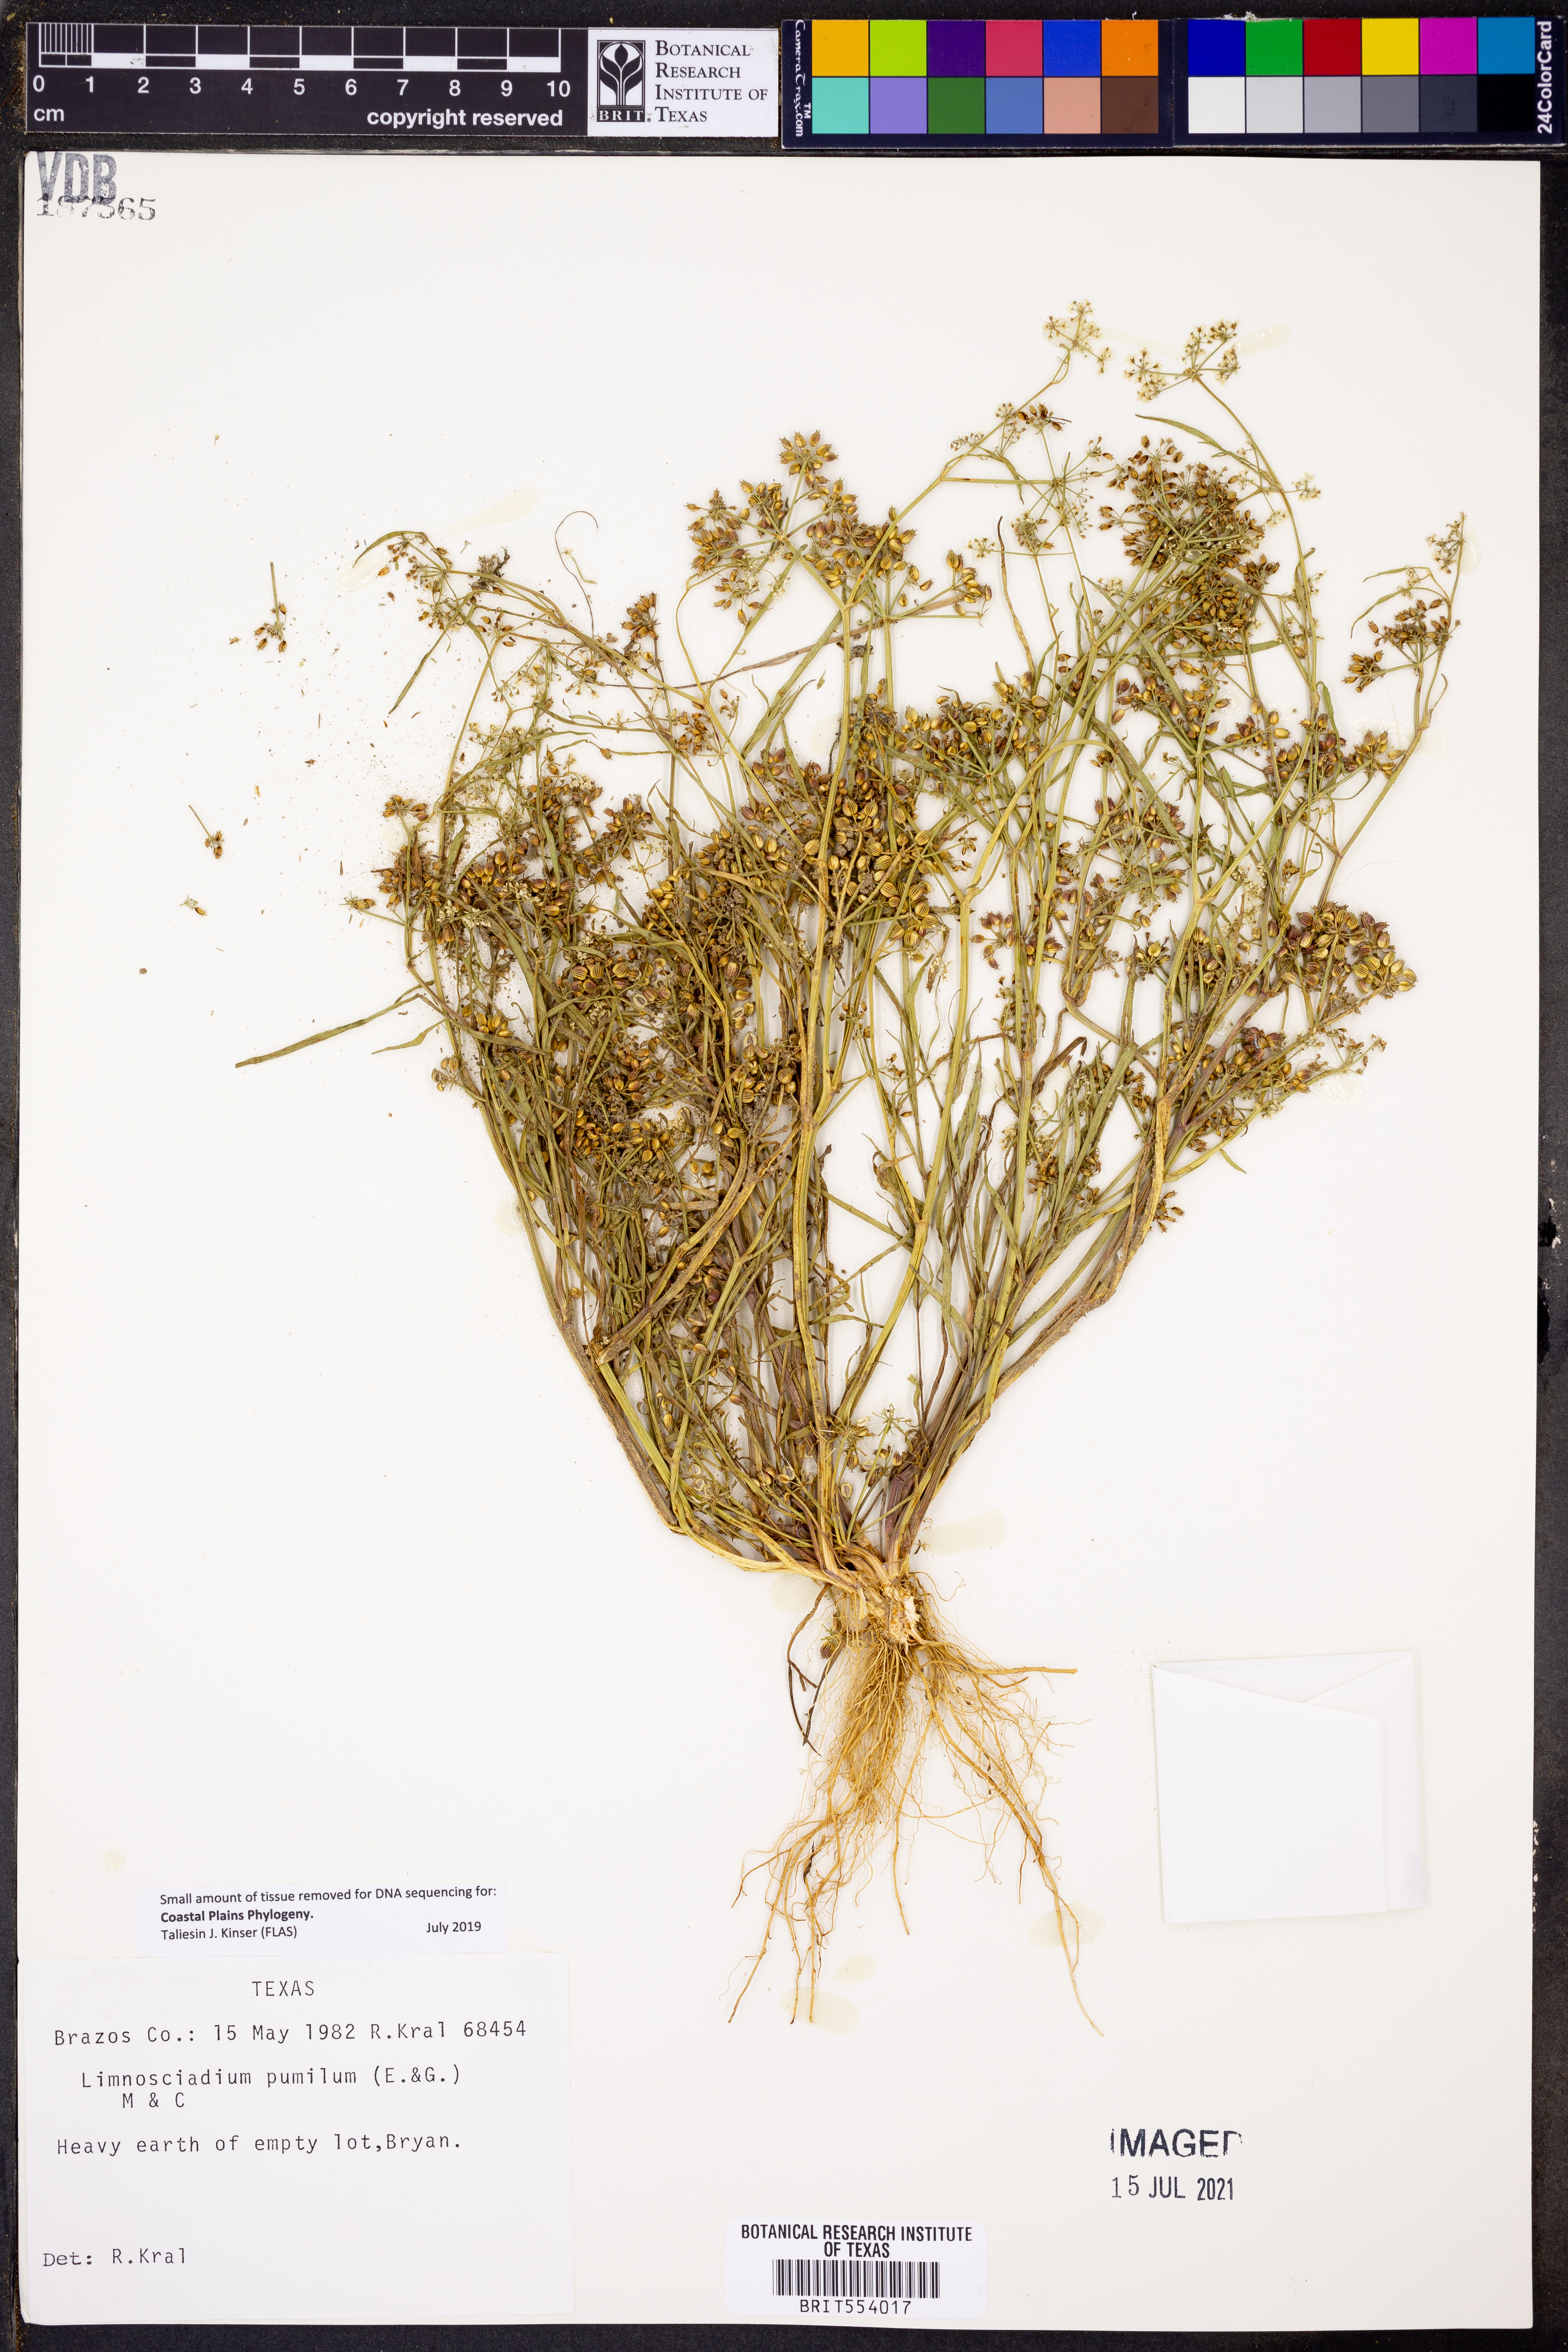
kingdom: Plantae
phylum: Tracheophyta
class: Magnoliopsida
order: Apiales
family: Apiaceae
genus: Limnosciadium
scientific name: Limnosciadium pinnatum
